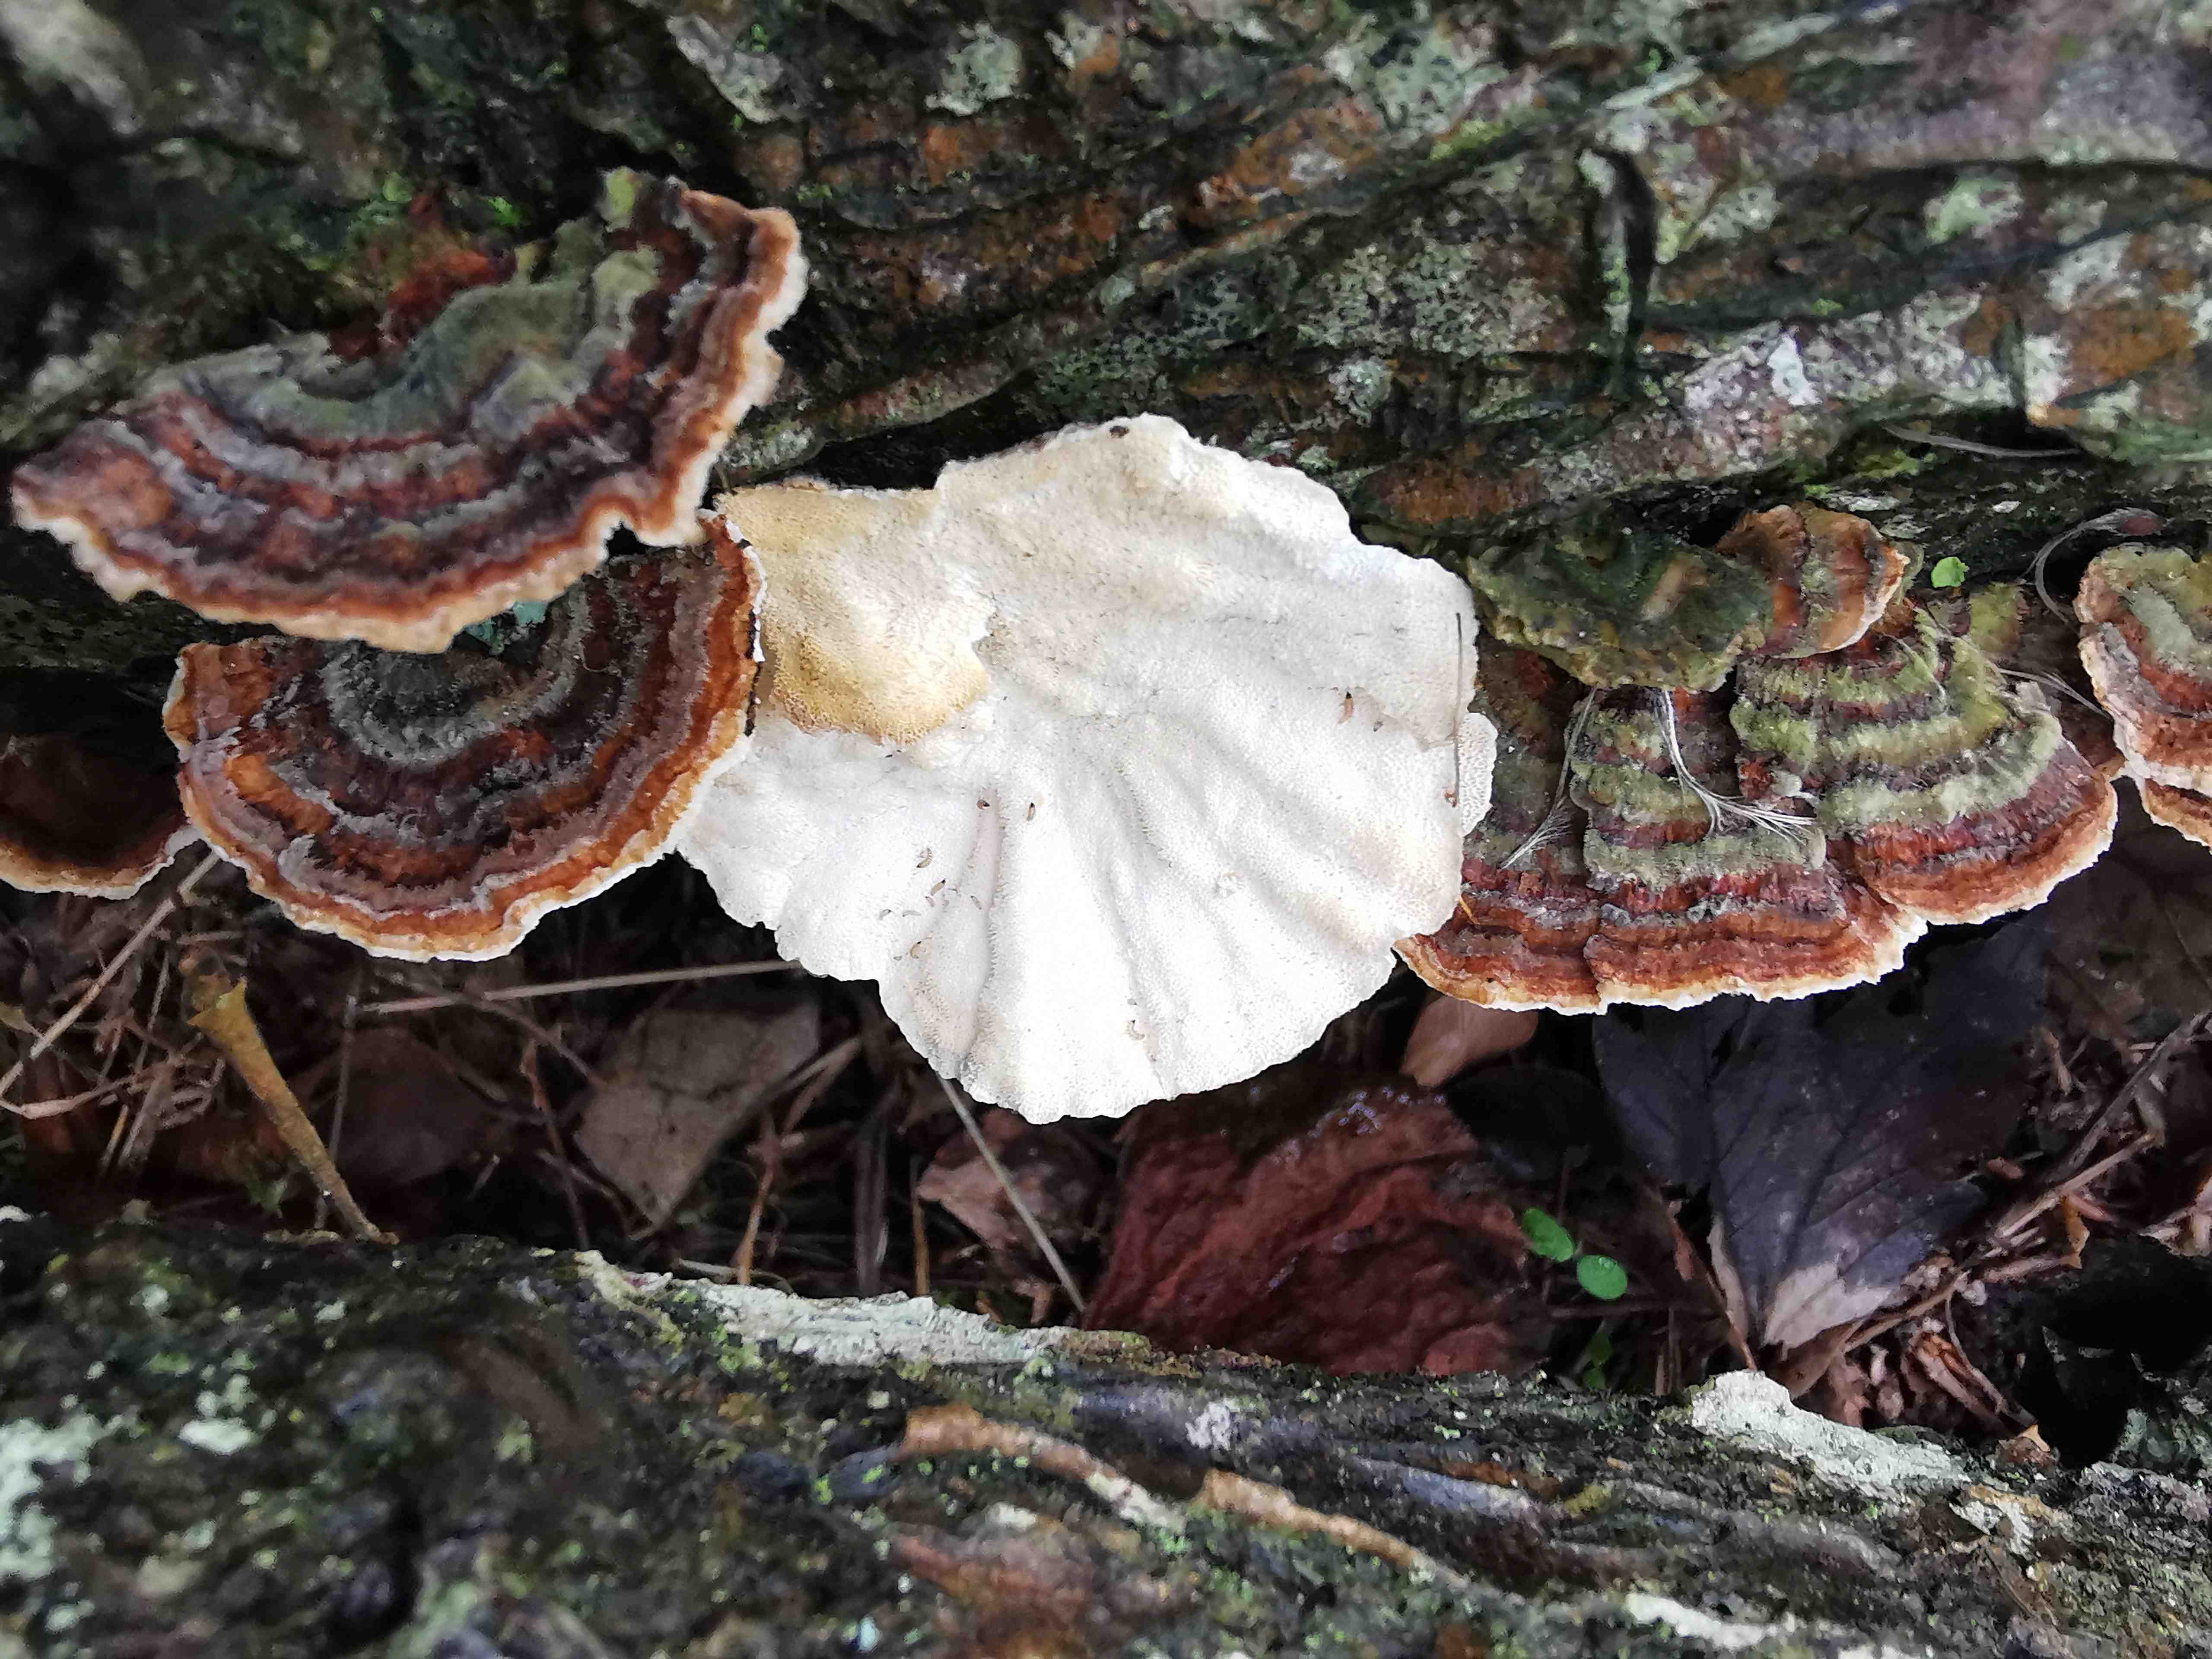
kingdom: Fungi
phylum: Basidiomycota
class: Agaricomycetes
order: Polyporales
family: Polyporaceae
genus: Trametes
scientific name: Trametes versicolor
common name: broget læderporesvamp
